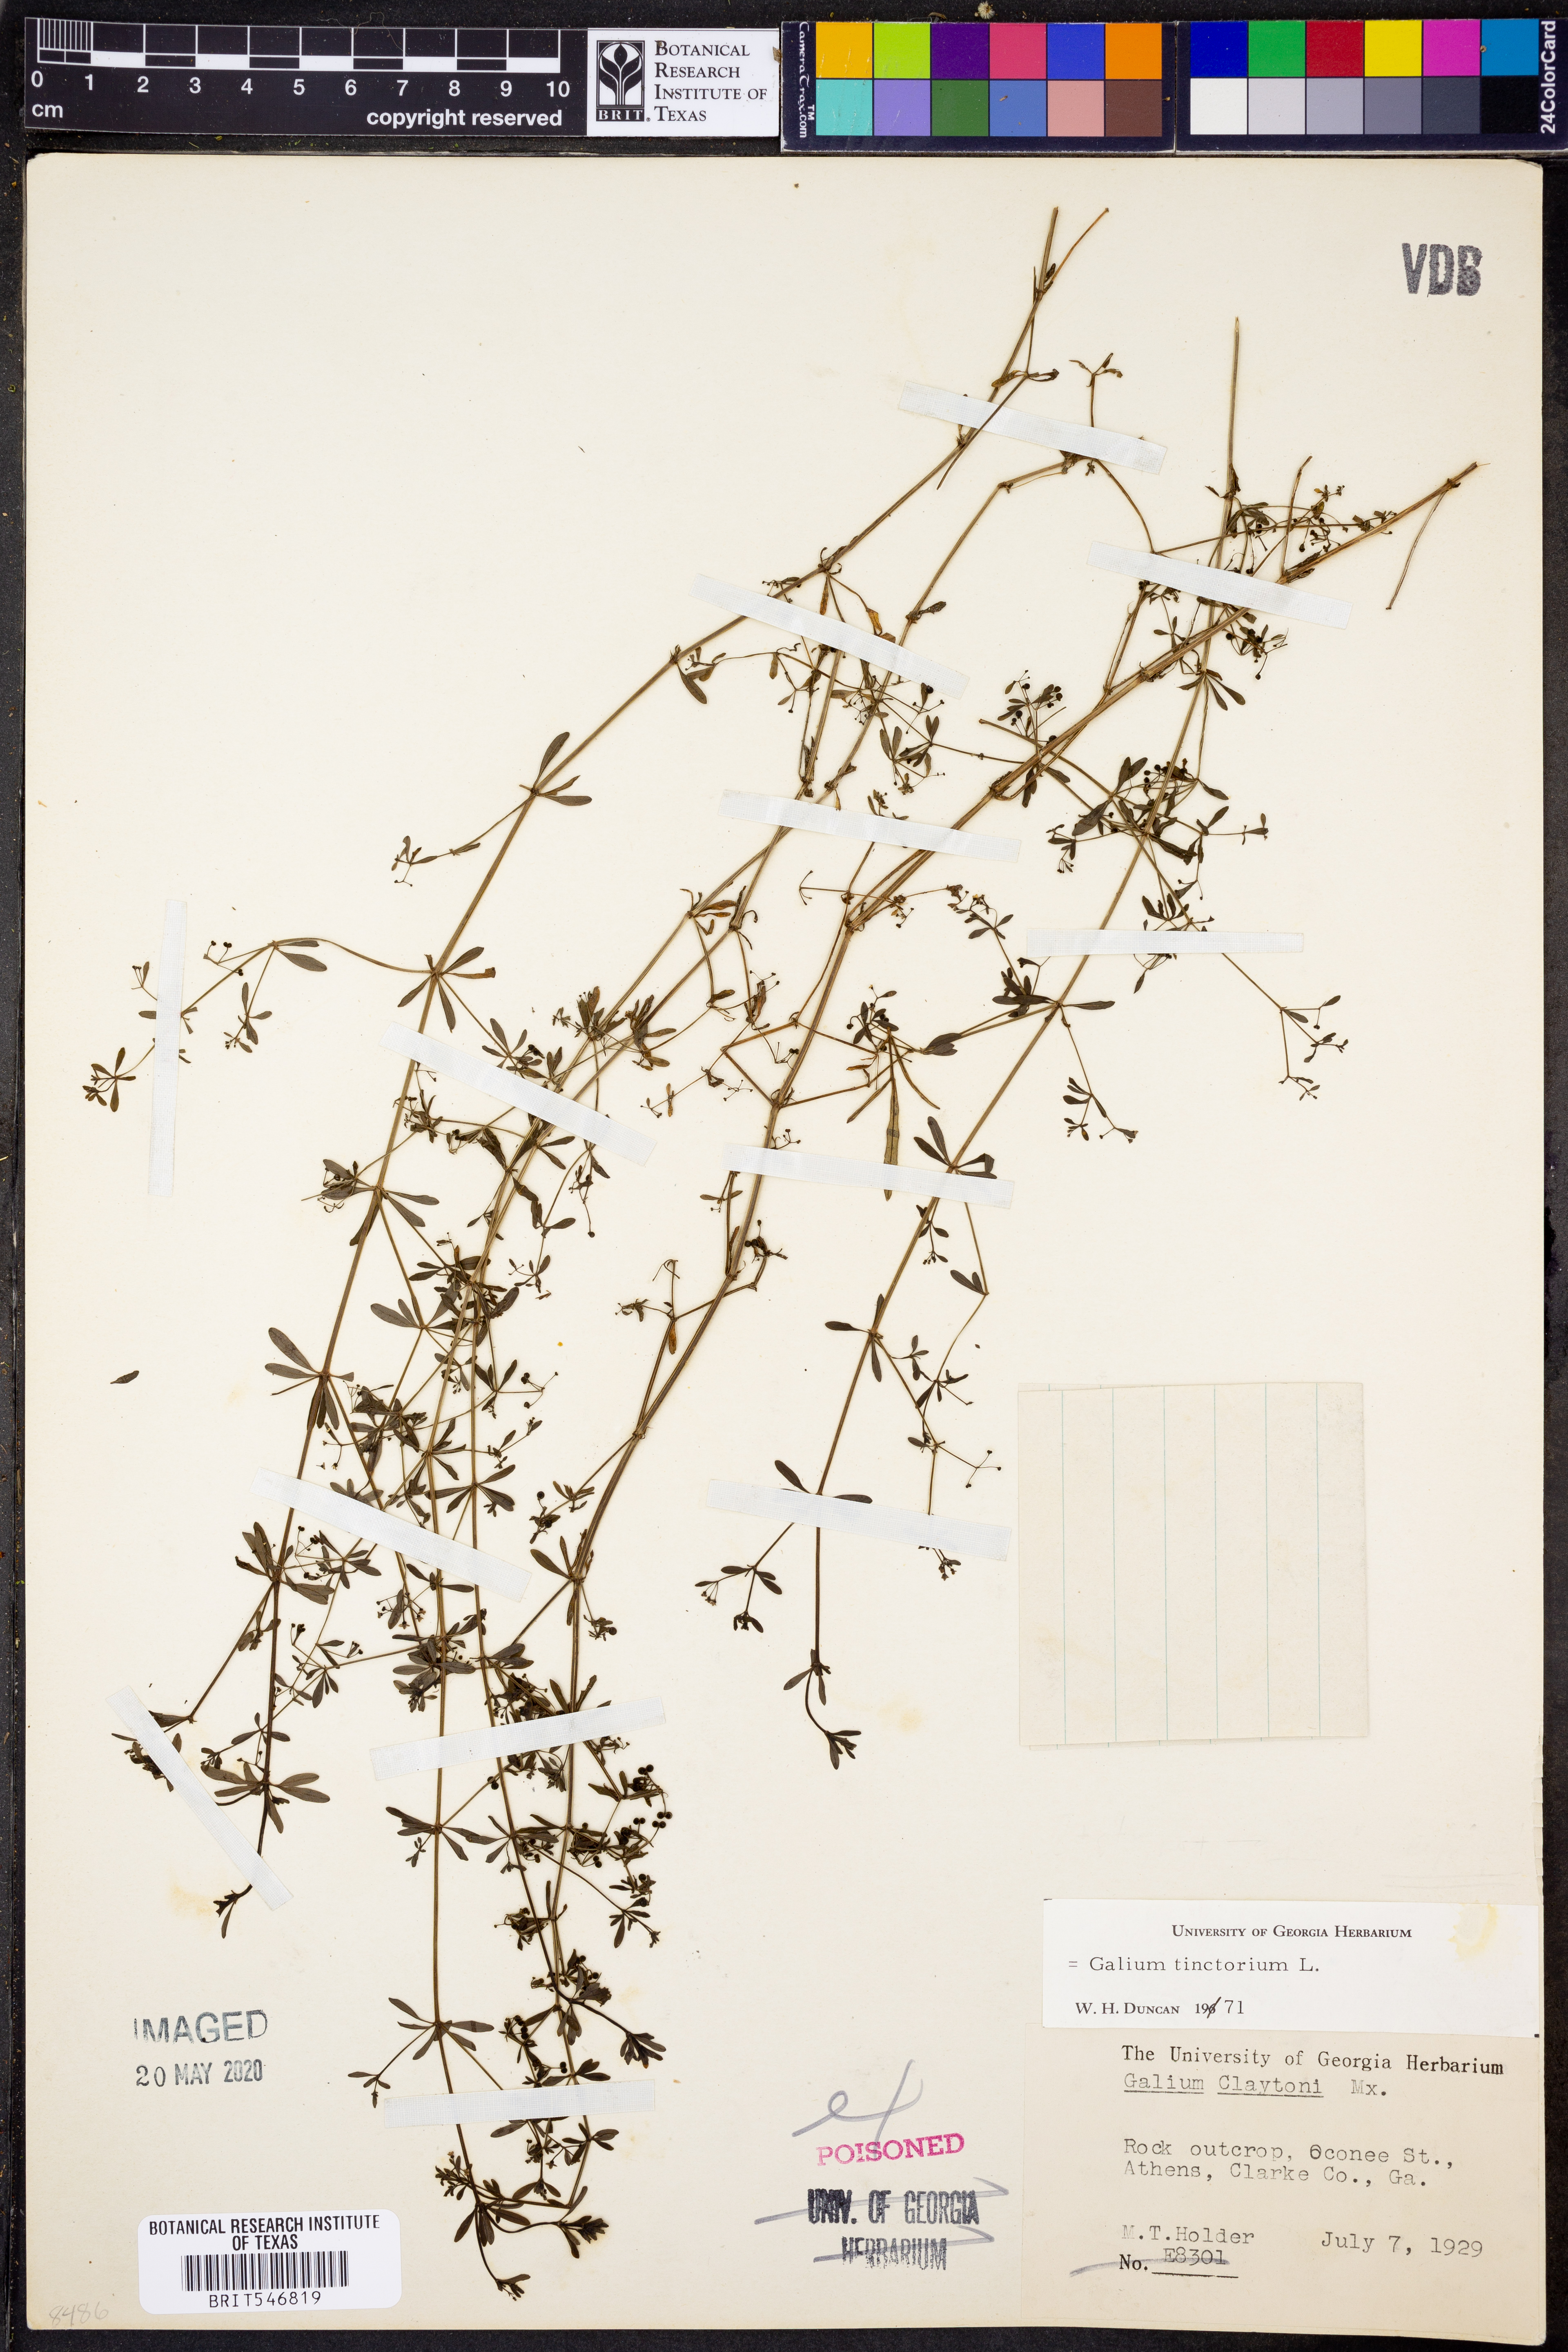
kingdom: Plantae
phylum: Tracheophyta
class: Magnoliopsida
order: Gentianales
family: Rubiaceae
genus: Asperula
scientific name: Asperula tinctoria
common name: Dyer's woodruff
